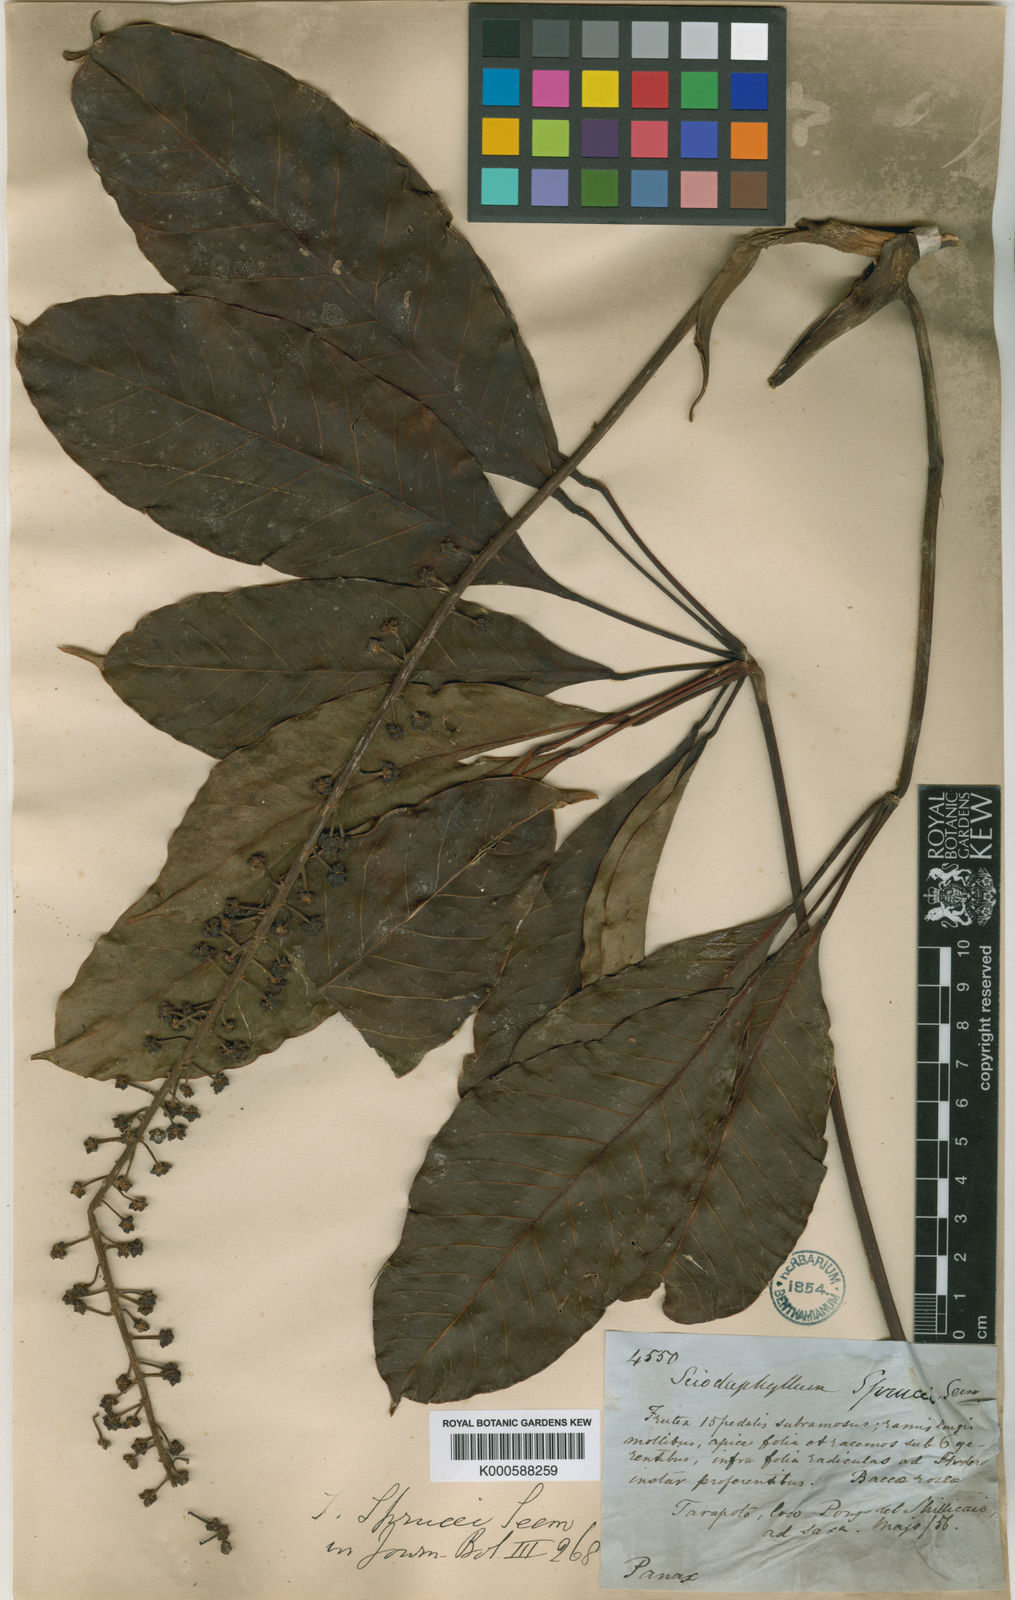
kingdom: Plantae
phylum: Tracheophyta
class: Magnoliopsida
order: Apiales
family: Araliaceae
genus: Sciodaphyllum
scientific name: Sciodaphyllum sprucei
